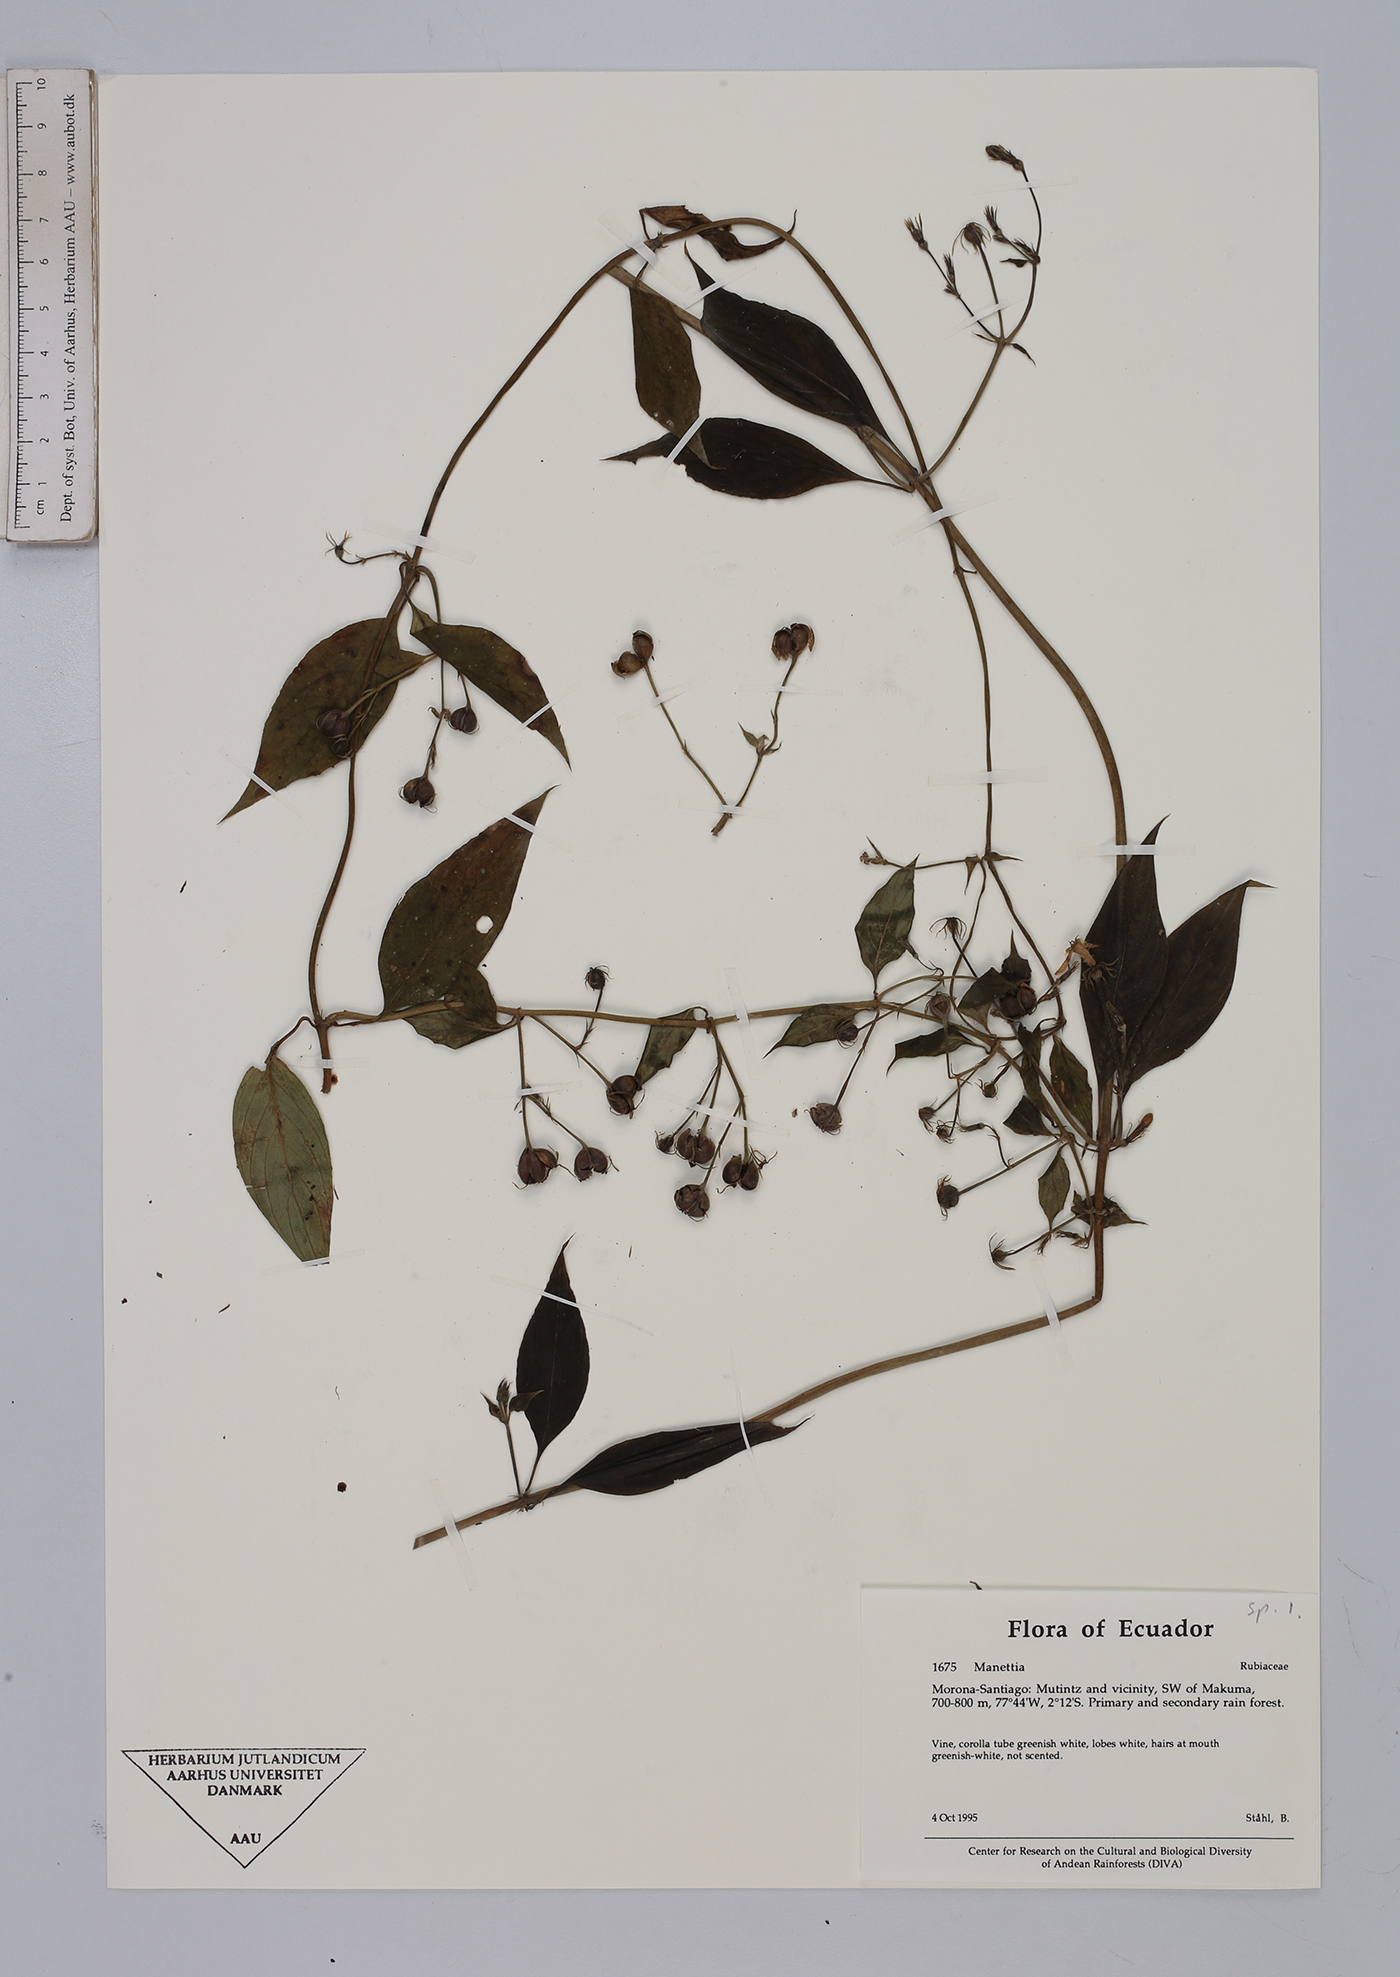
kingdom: Plantae
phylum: Tracheophyta
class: Magnoliopsida
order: Gentianales
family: Rubiaceae
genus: Manettia
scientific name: Manettia
